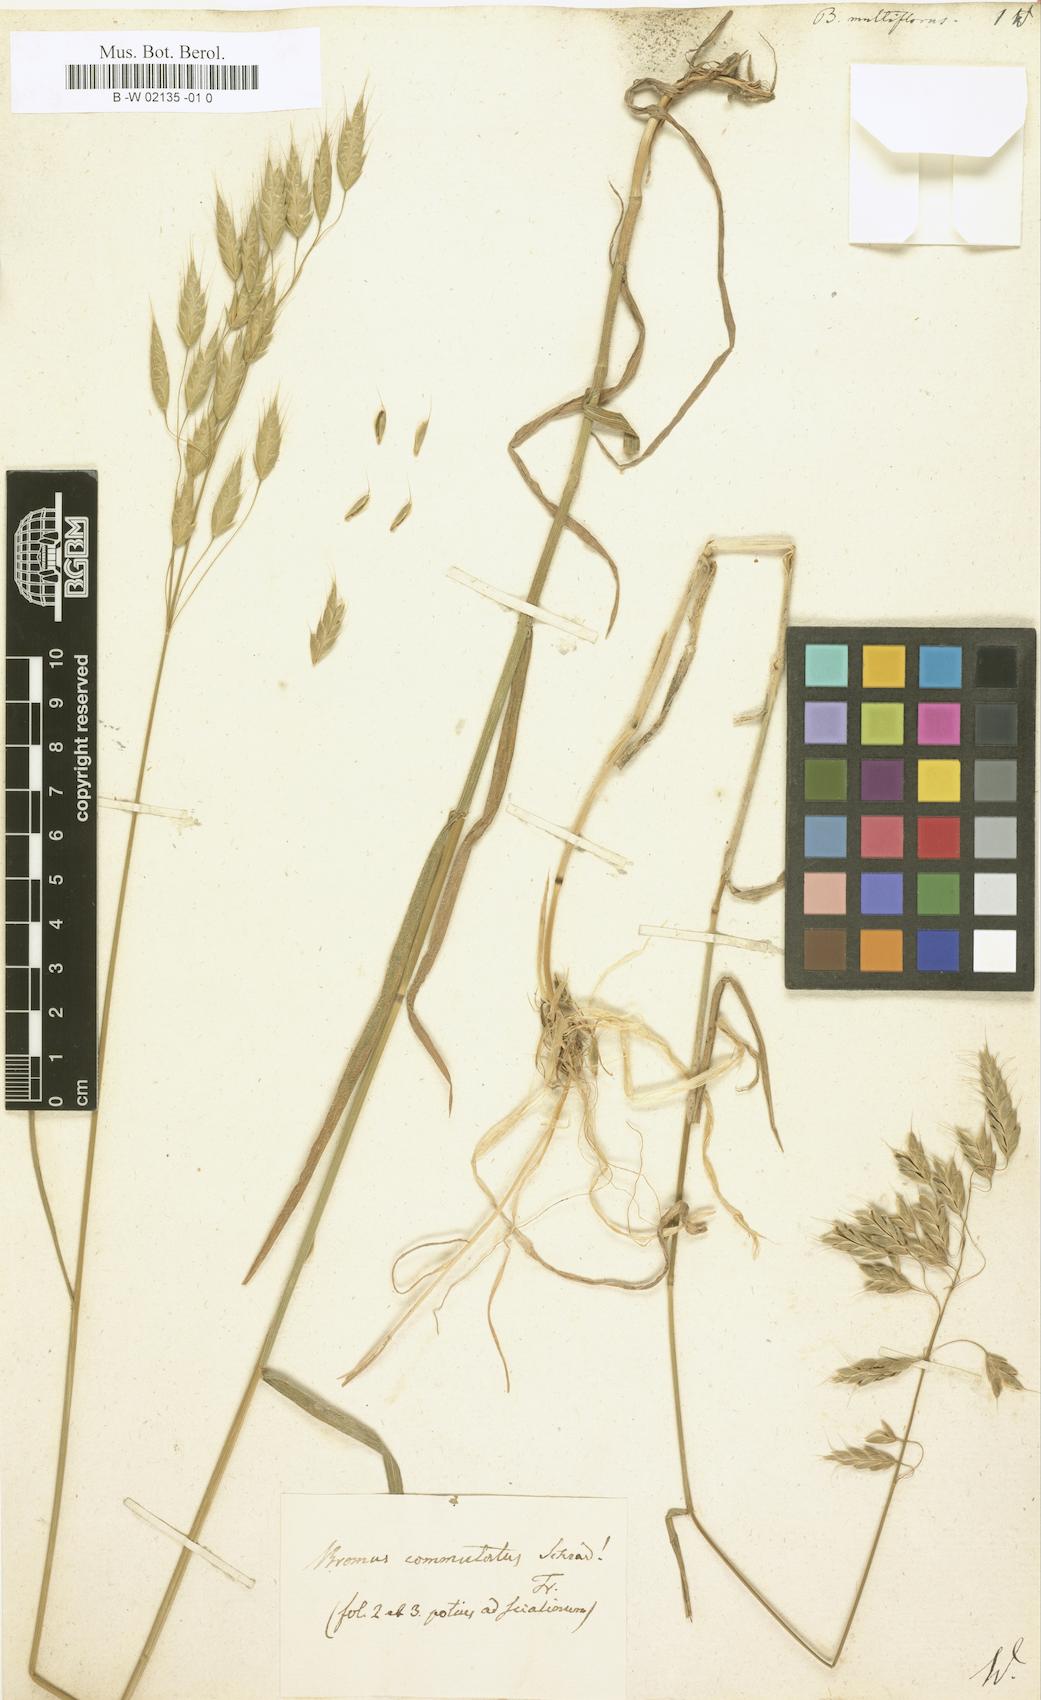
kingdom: Plantae
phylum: Tracheophyta
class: Liliopsida
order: Poales
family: Poaceae
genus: Bromus
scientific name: Bromus arvensis
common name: Field brome
